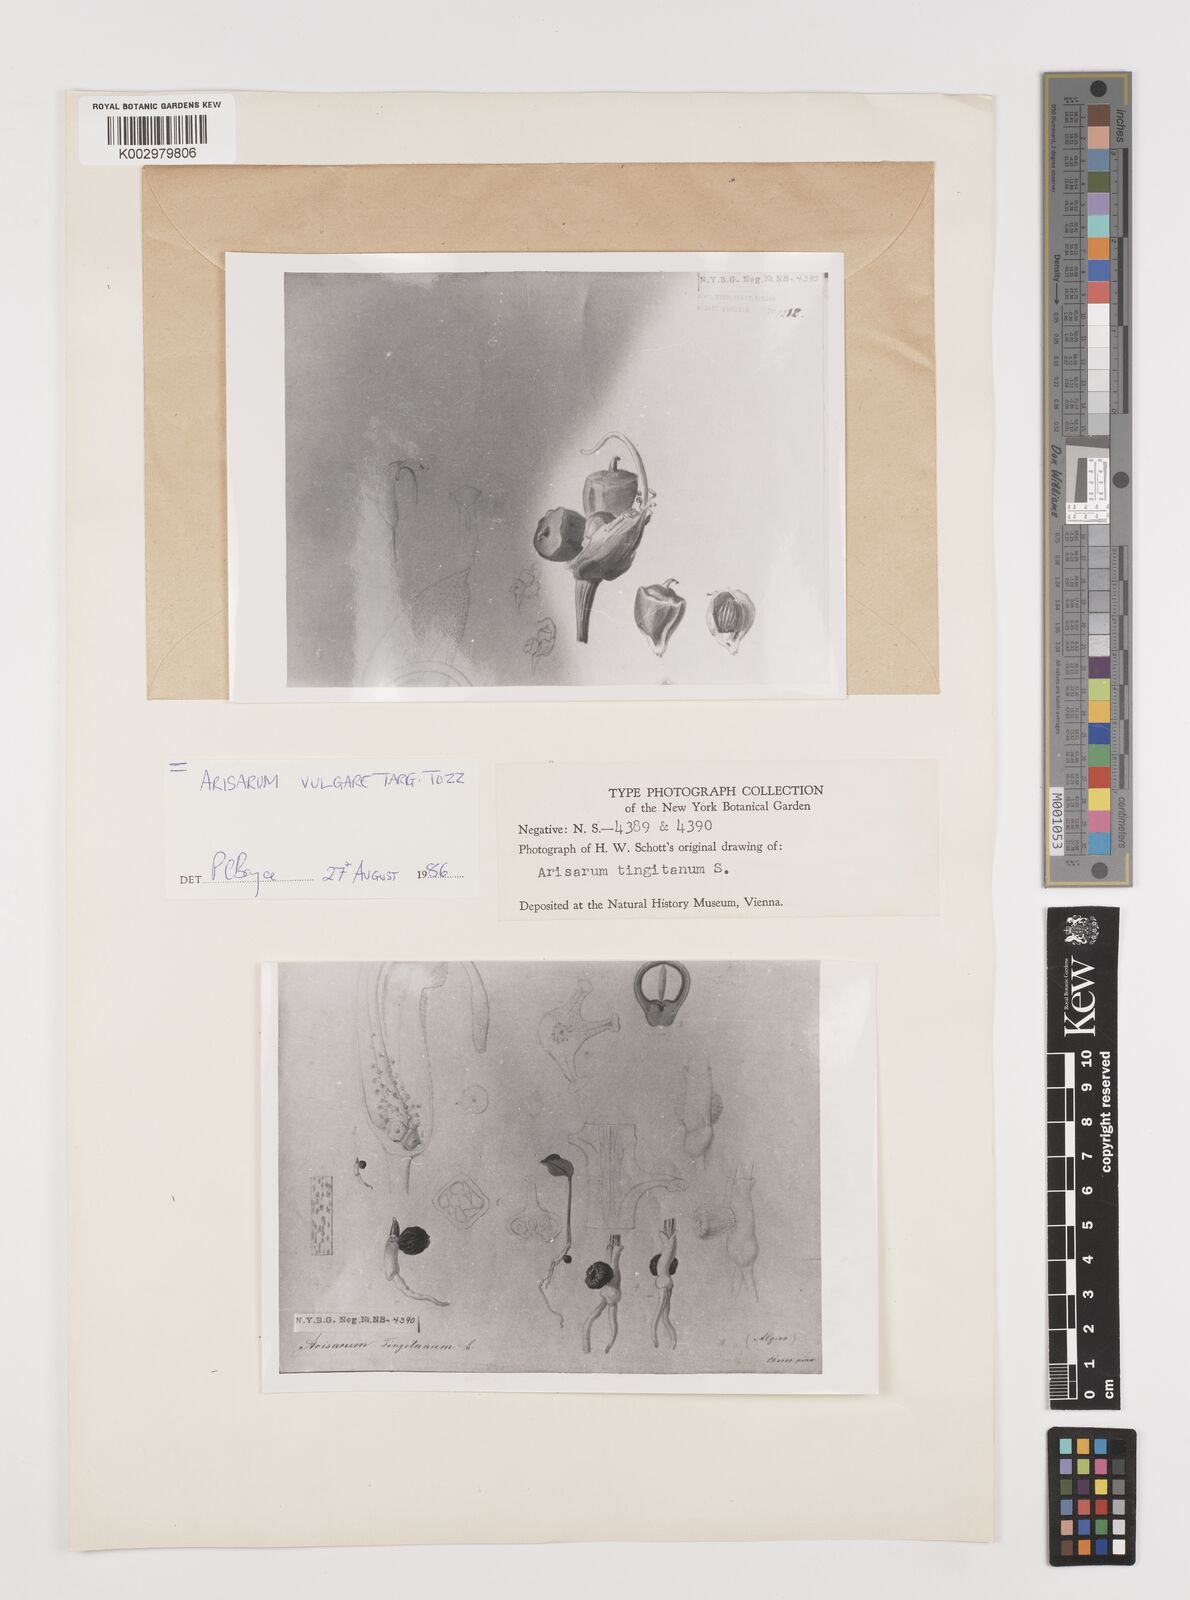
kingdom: Plantae
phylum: Tracheophyta
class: Liliopsida
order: Alismatales
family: Araceae
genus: Arisarum
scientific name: Arisarum vulgare
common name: Common arisarum
